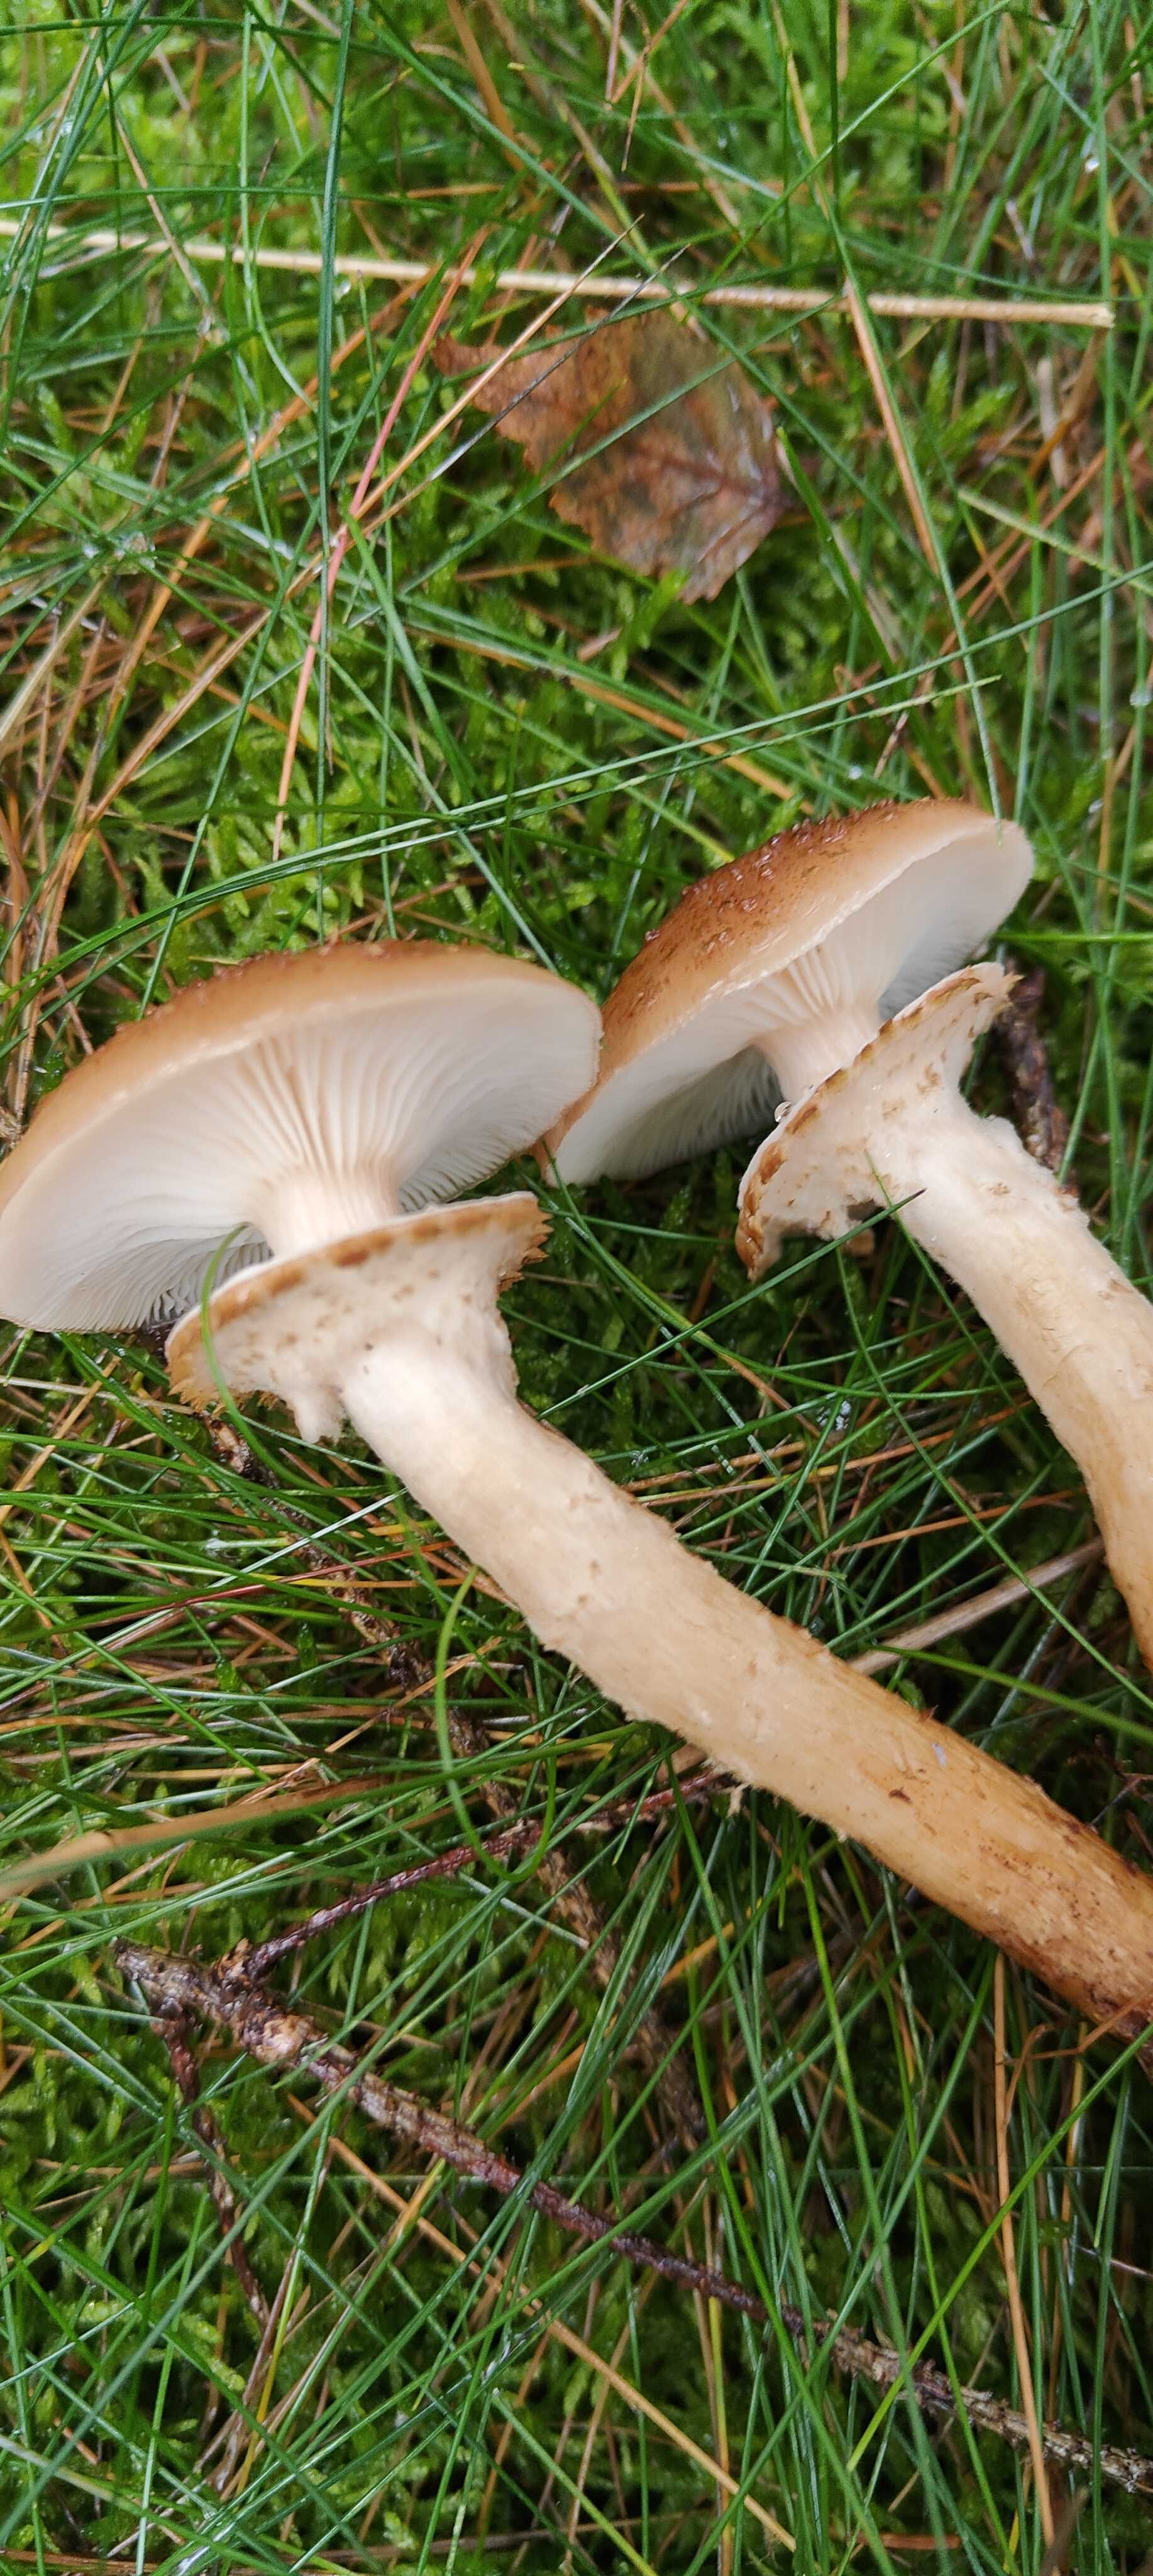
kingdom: Fungi
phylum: Basidiomycota
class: Agaricomycetes
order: Agaricales
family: Physalacriaceae
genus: Armillaria
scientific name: Armillaria ostoyae
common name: mørk honningsvamp
